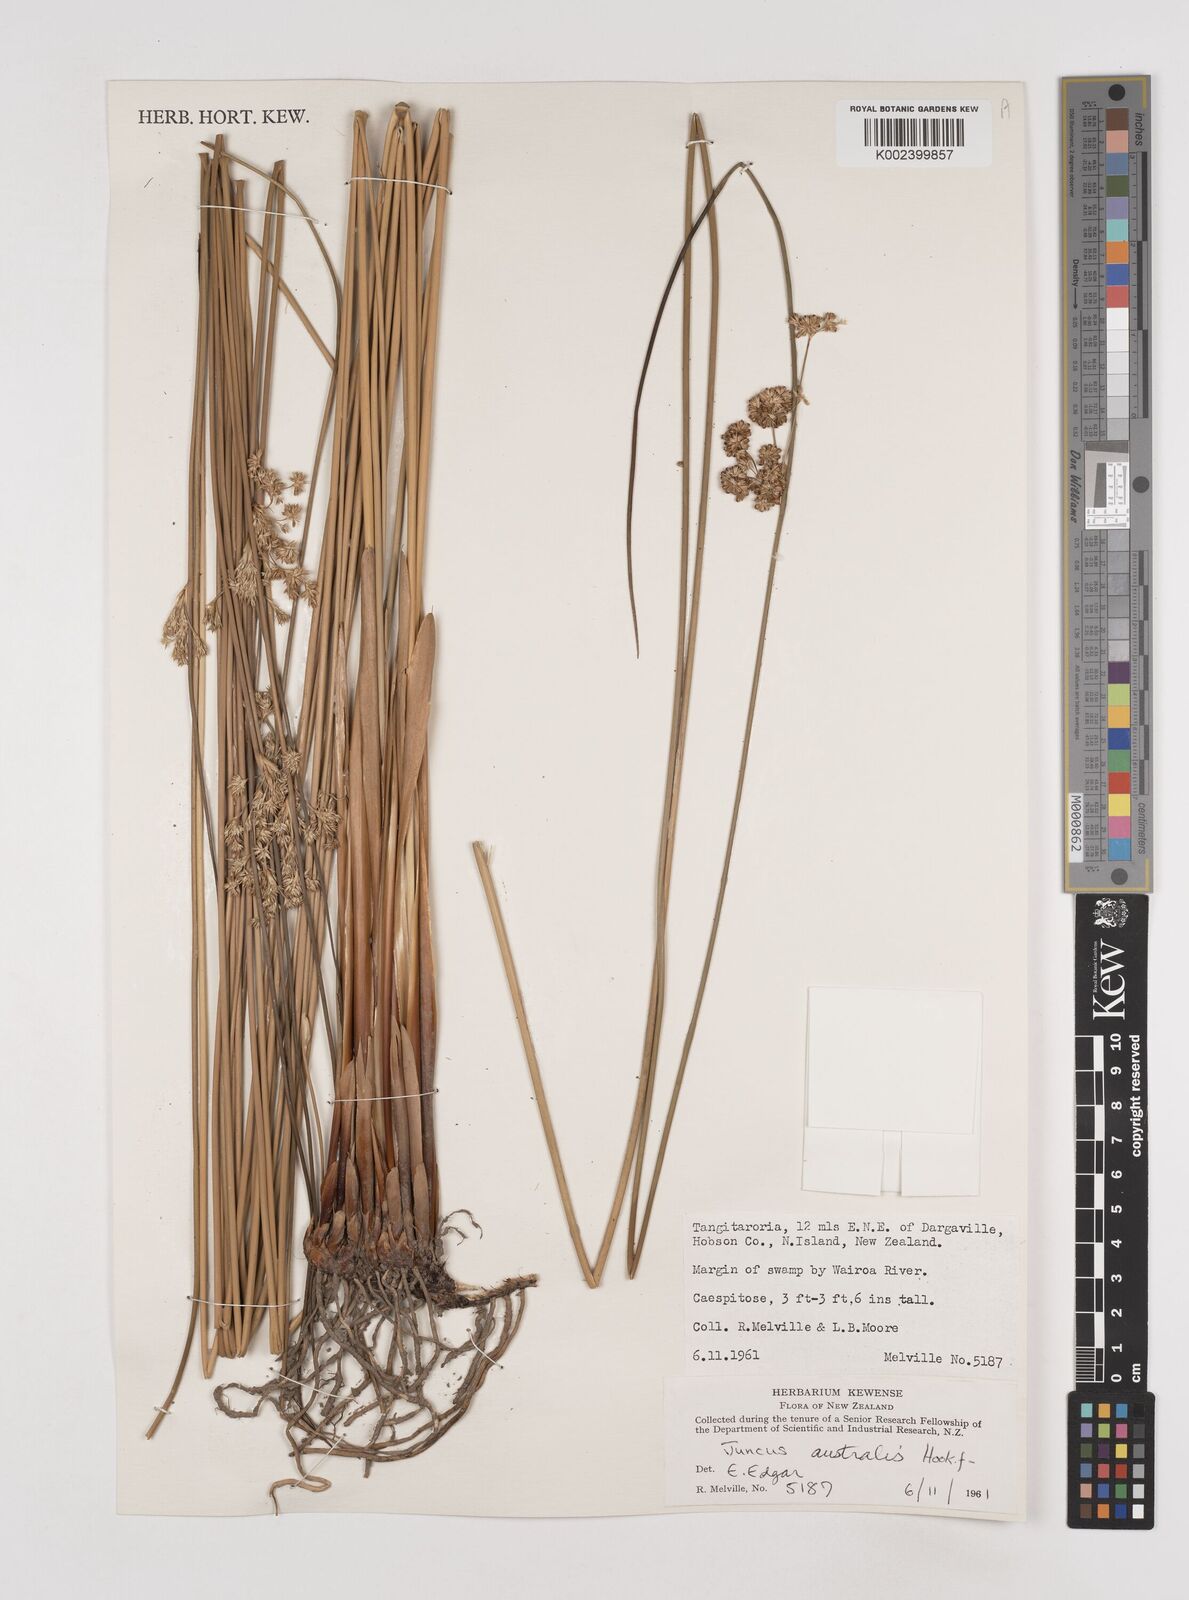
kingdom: Plantae
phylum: Tracheophyta
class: Liliopsida
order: Poales
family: Juncaceae
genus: Juncus
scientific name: Juncus australis
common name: Austral rush
